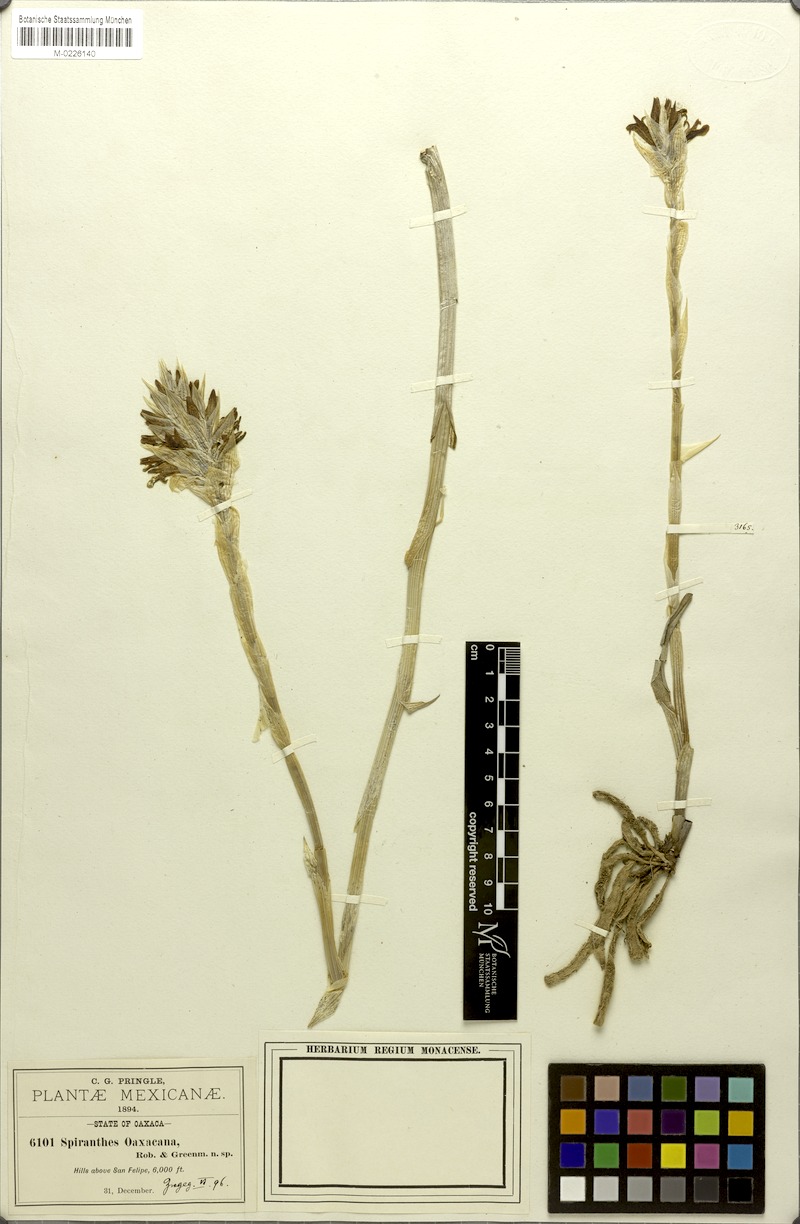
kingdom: Plantae
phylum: Tracheophyta
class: Liliopsida
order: Asparagales
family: Orchidaceae
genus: Deiregyne
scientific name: Deiregyne diaphana
